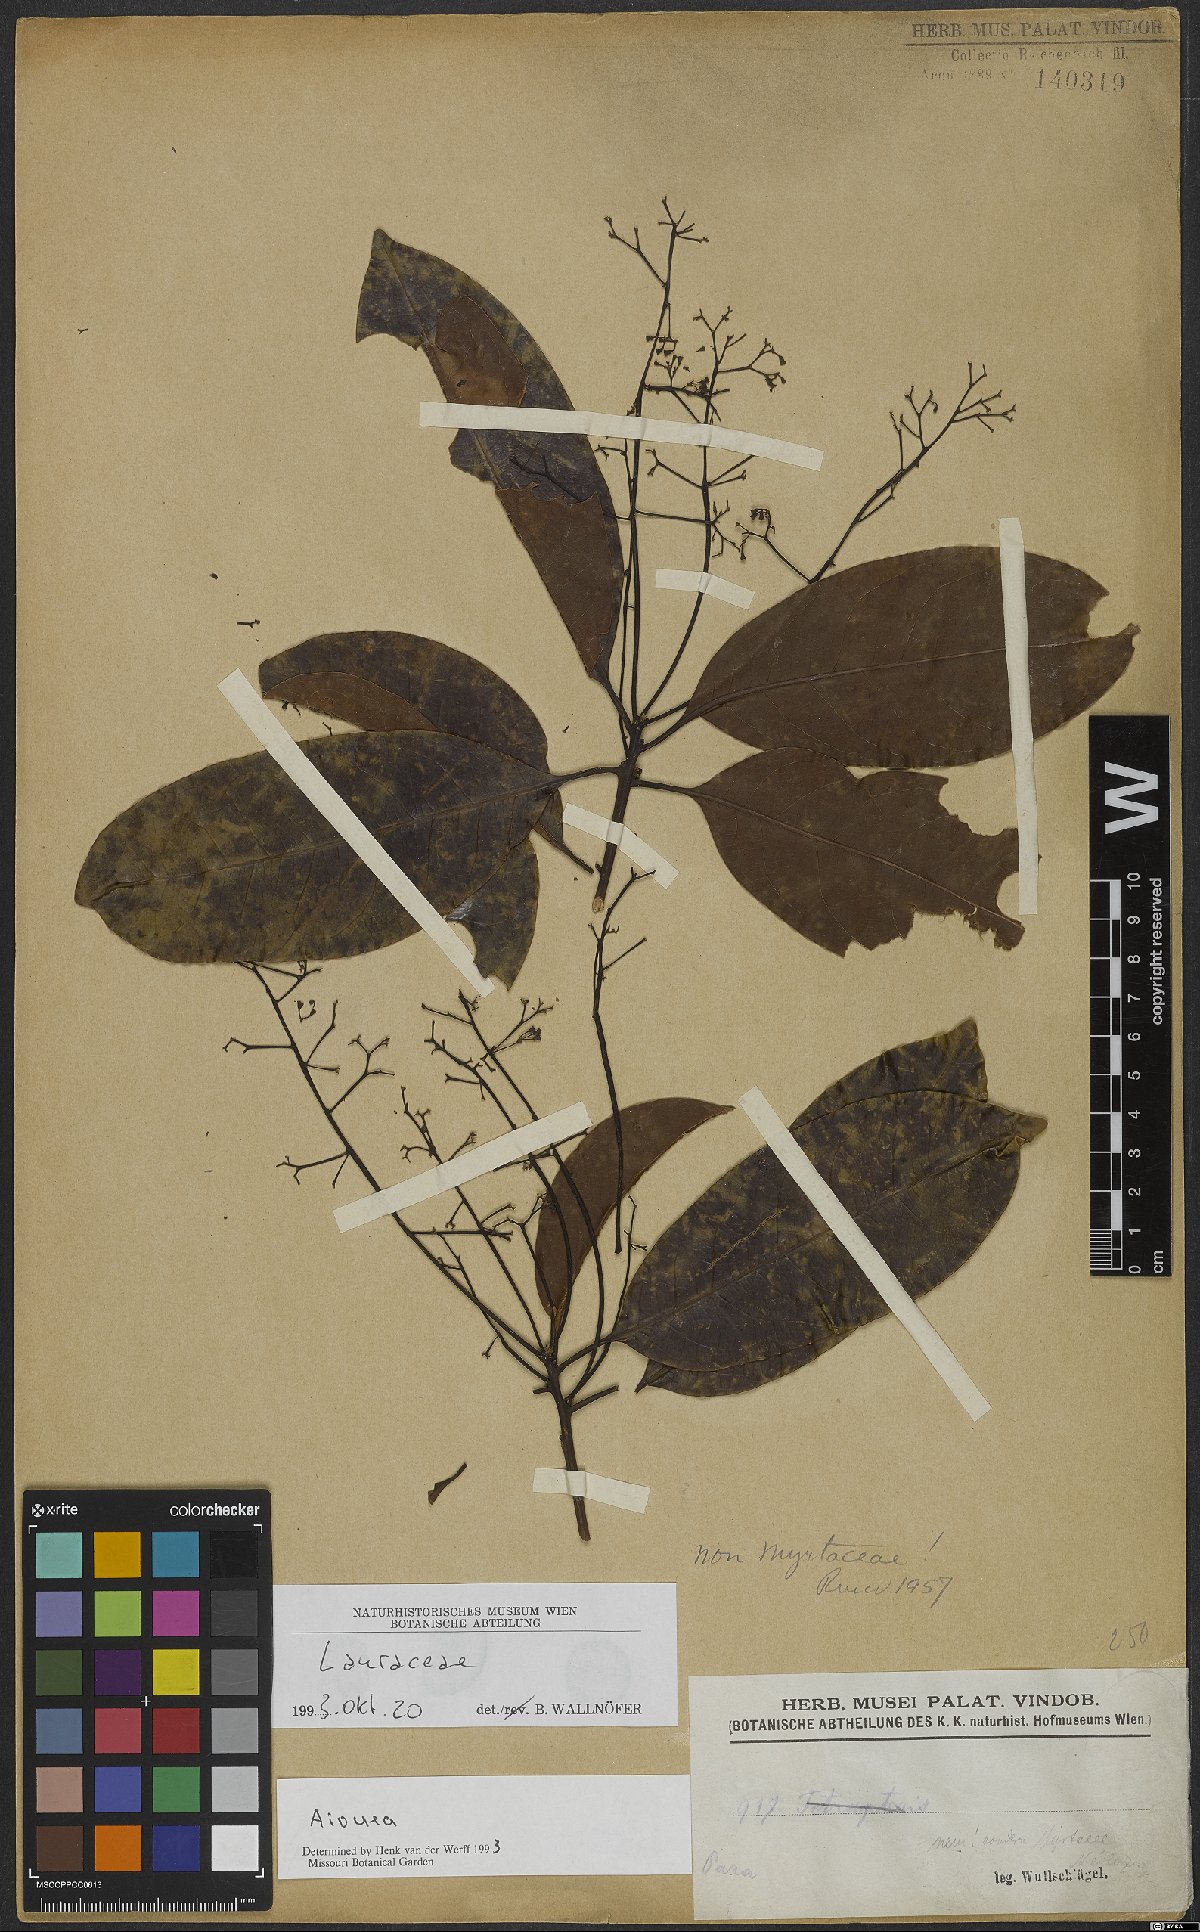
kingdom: Plantae
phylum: Tracheophyta
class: Magnoliopsida
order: Laurales
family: Lauraceae
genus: Aiouea
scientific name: Aiouea
